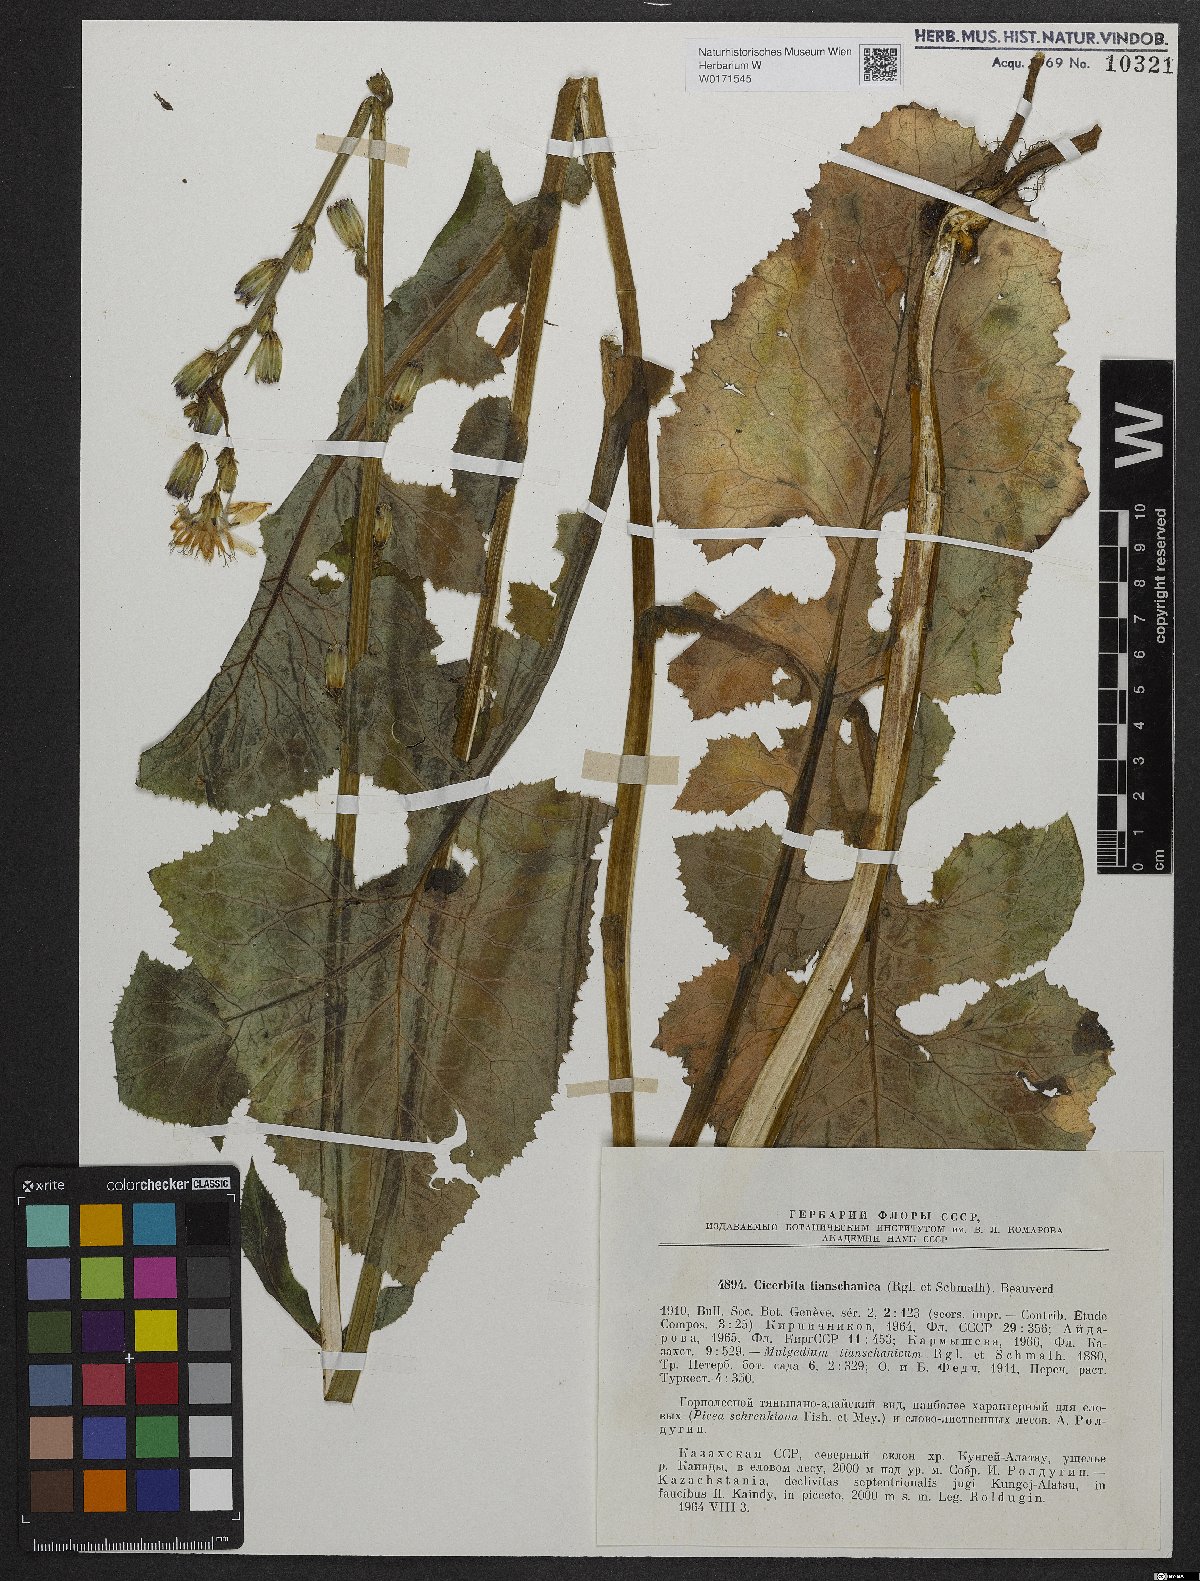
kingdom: Plantae
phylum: Tracheophyta
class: Magnoliopsida
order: Asterales
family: Asteraceae
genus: Cicerbita
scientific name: Cicerbita thianschanica
